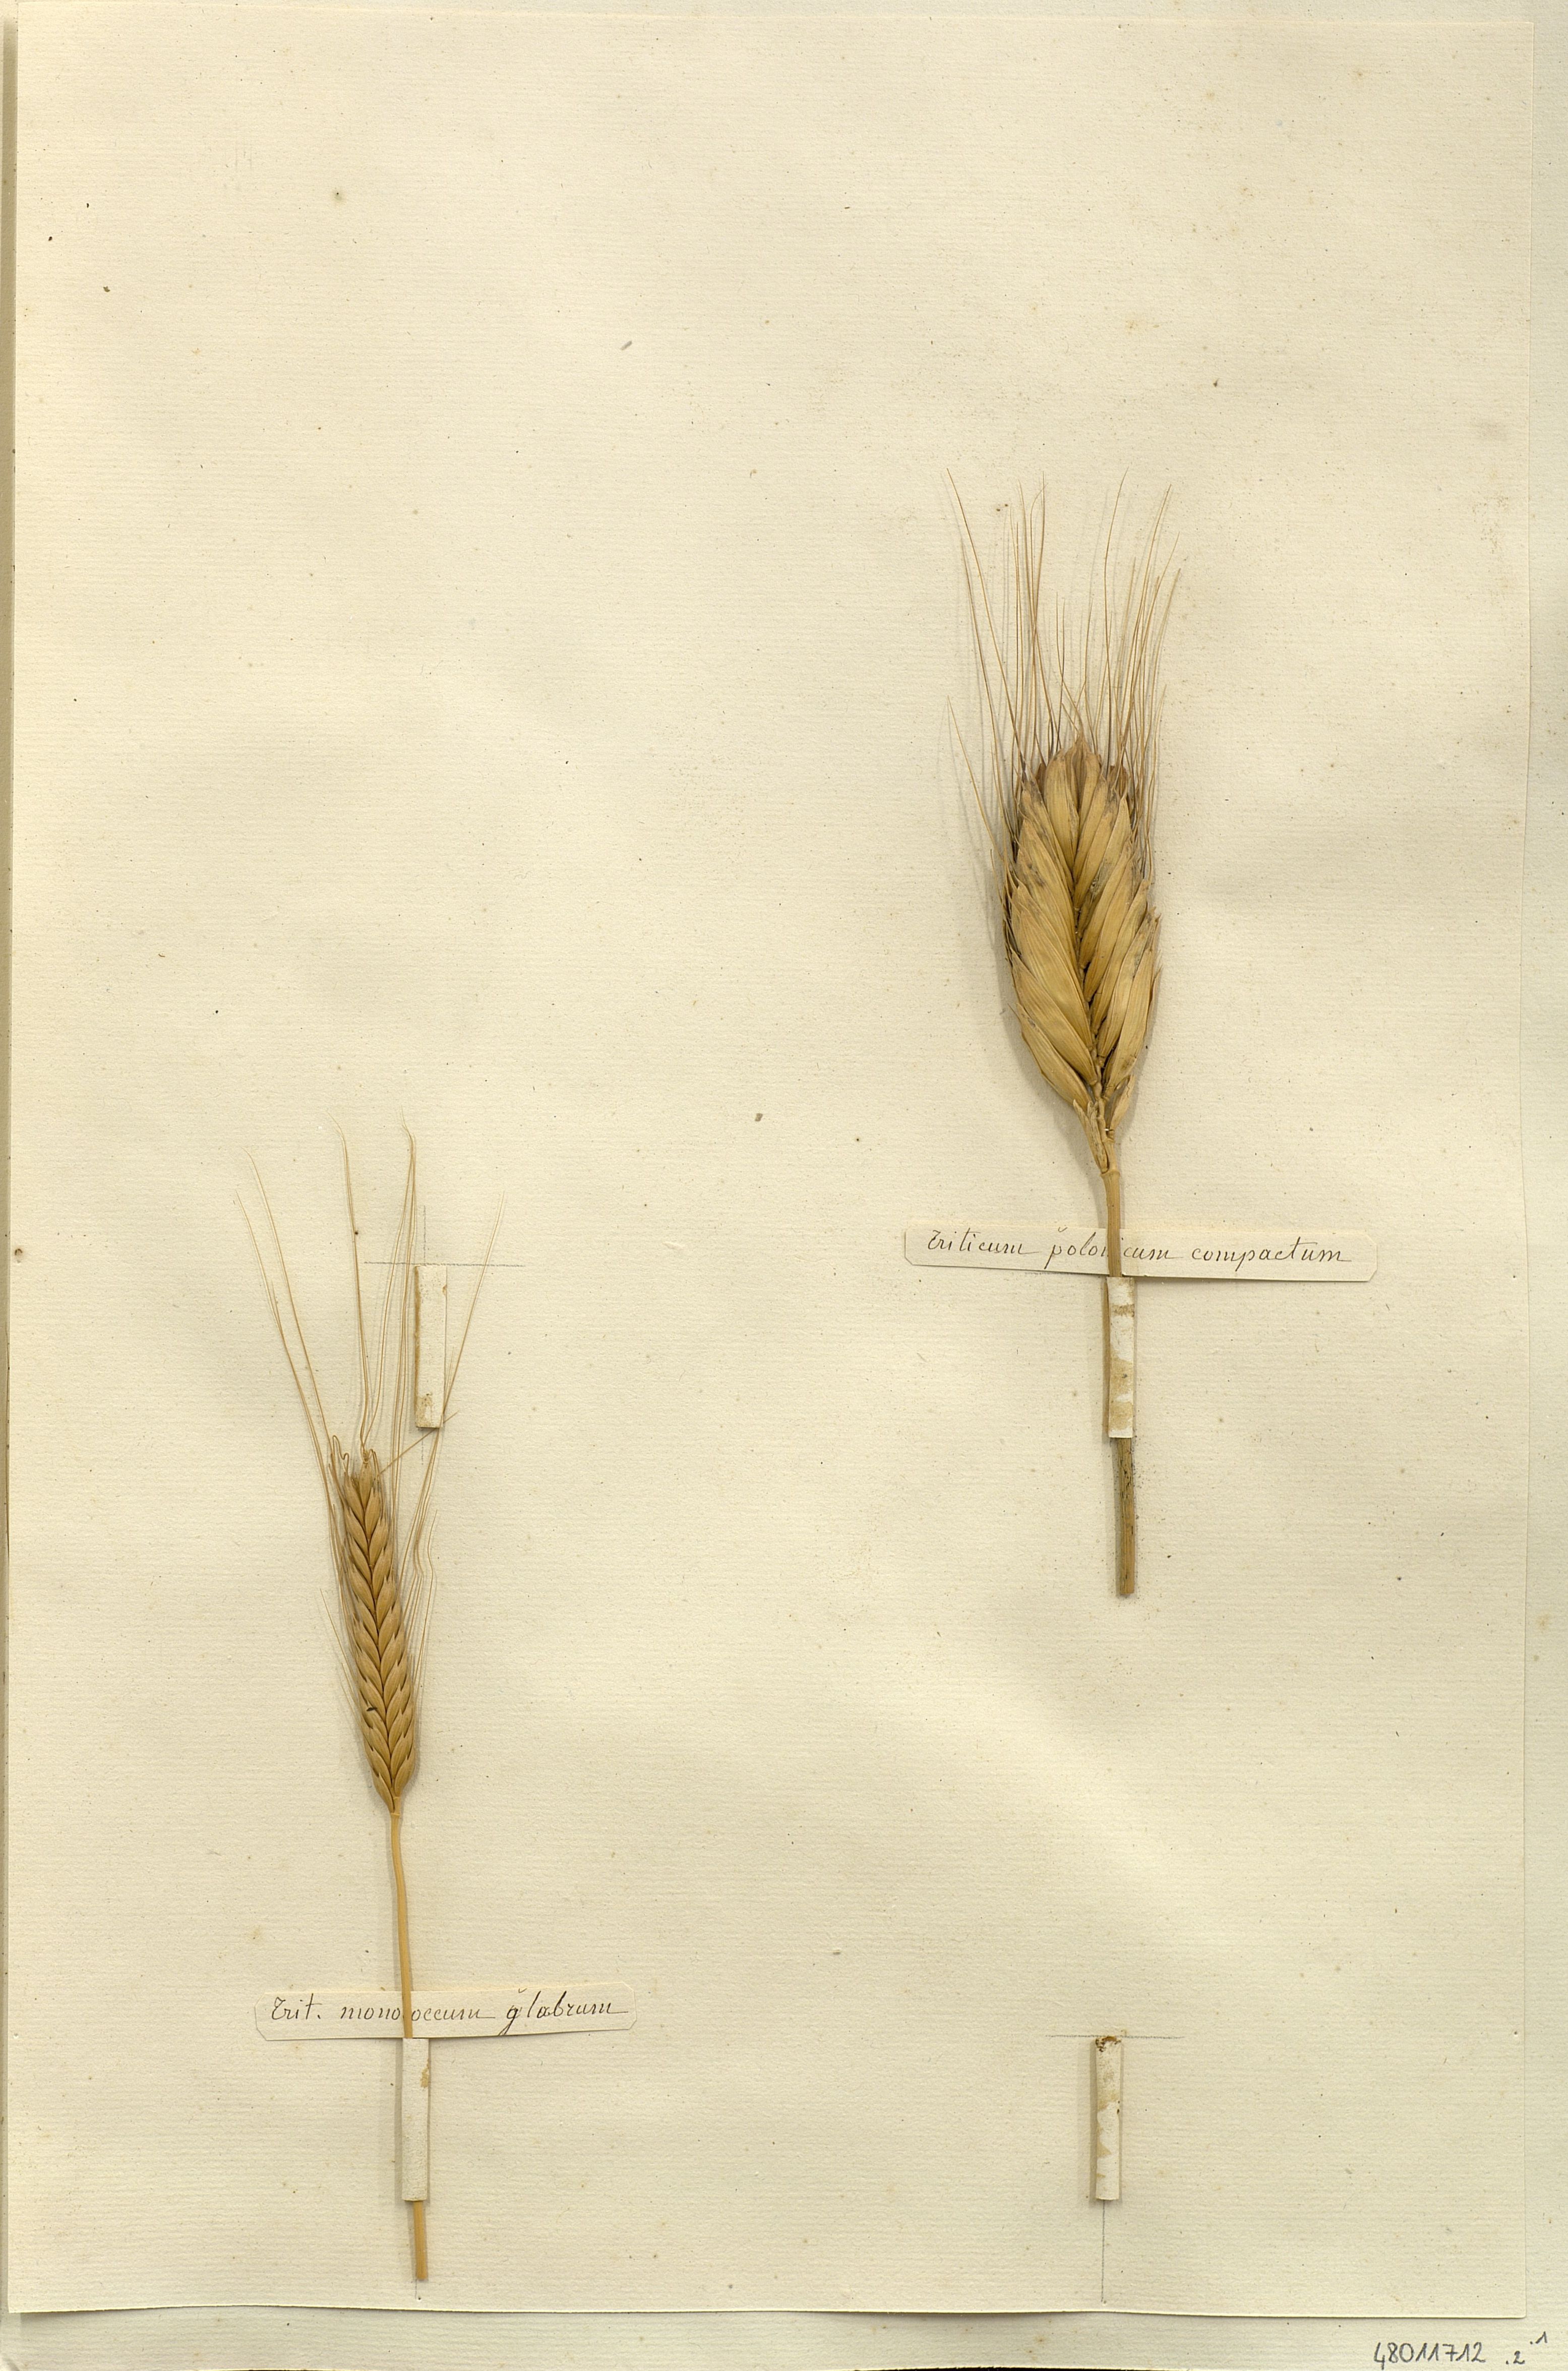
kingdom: Plantae
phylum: Tracheophyta
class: Liliopsida
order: Poales
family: Poaceae
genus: Triticum
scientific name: Triticum monococcum
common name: Einkorn
